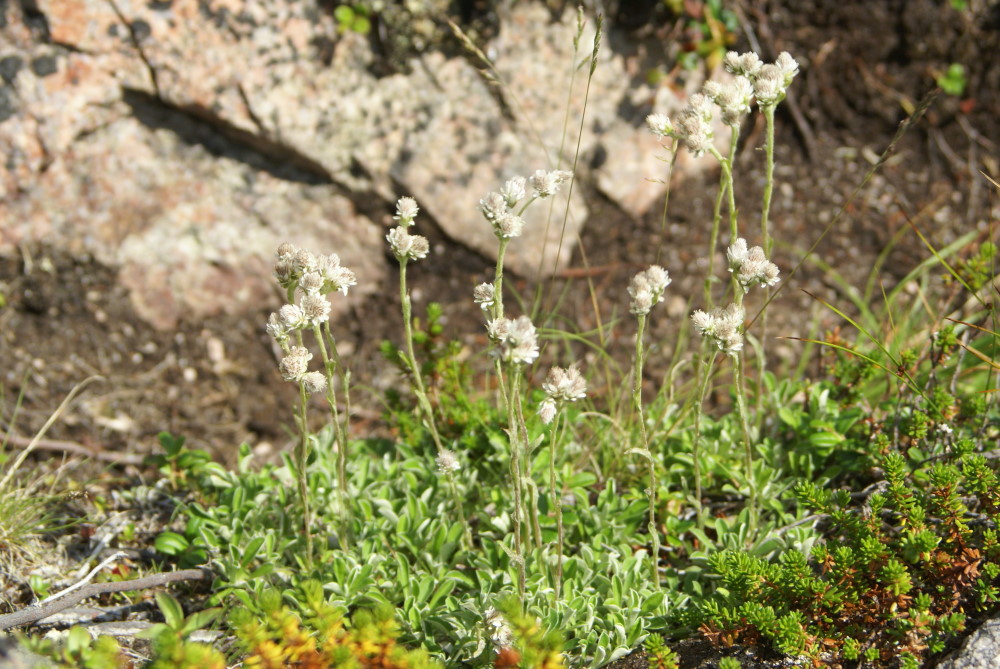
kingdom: Plantae
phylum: Tracheophyta
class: Magnoliopsida
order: Asterales
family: Asteraceae
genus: Antennaria
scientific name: Antennaria dioica
